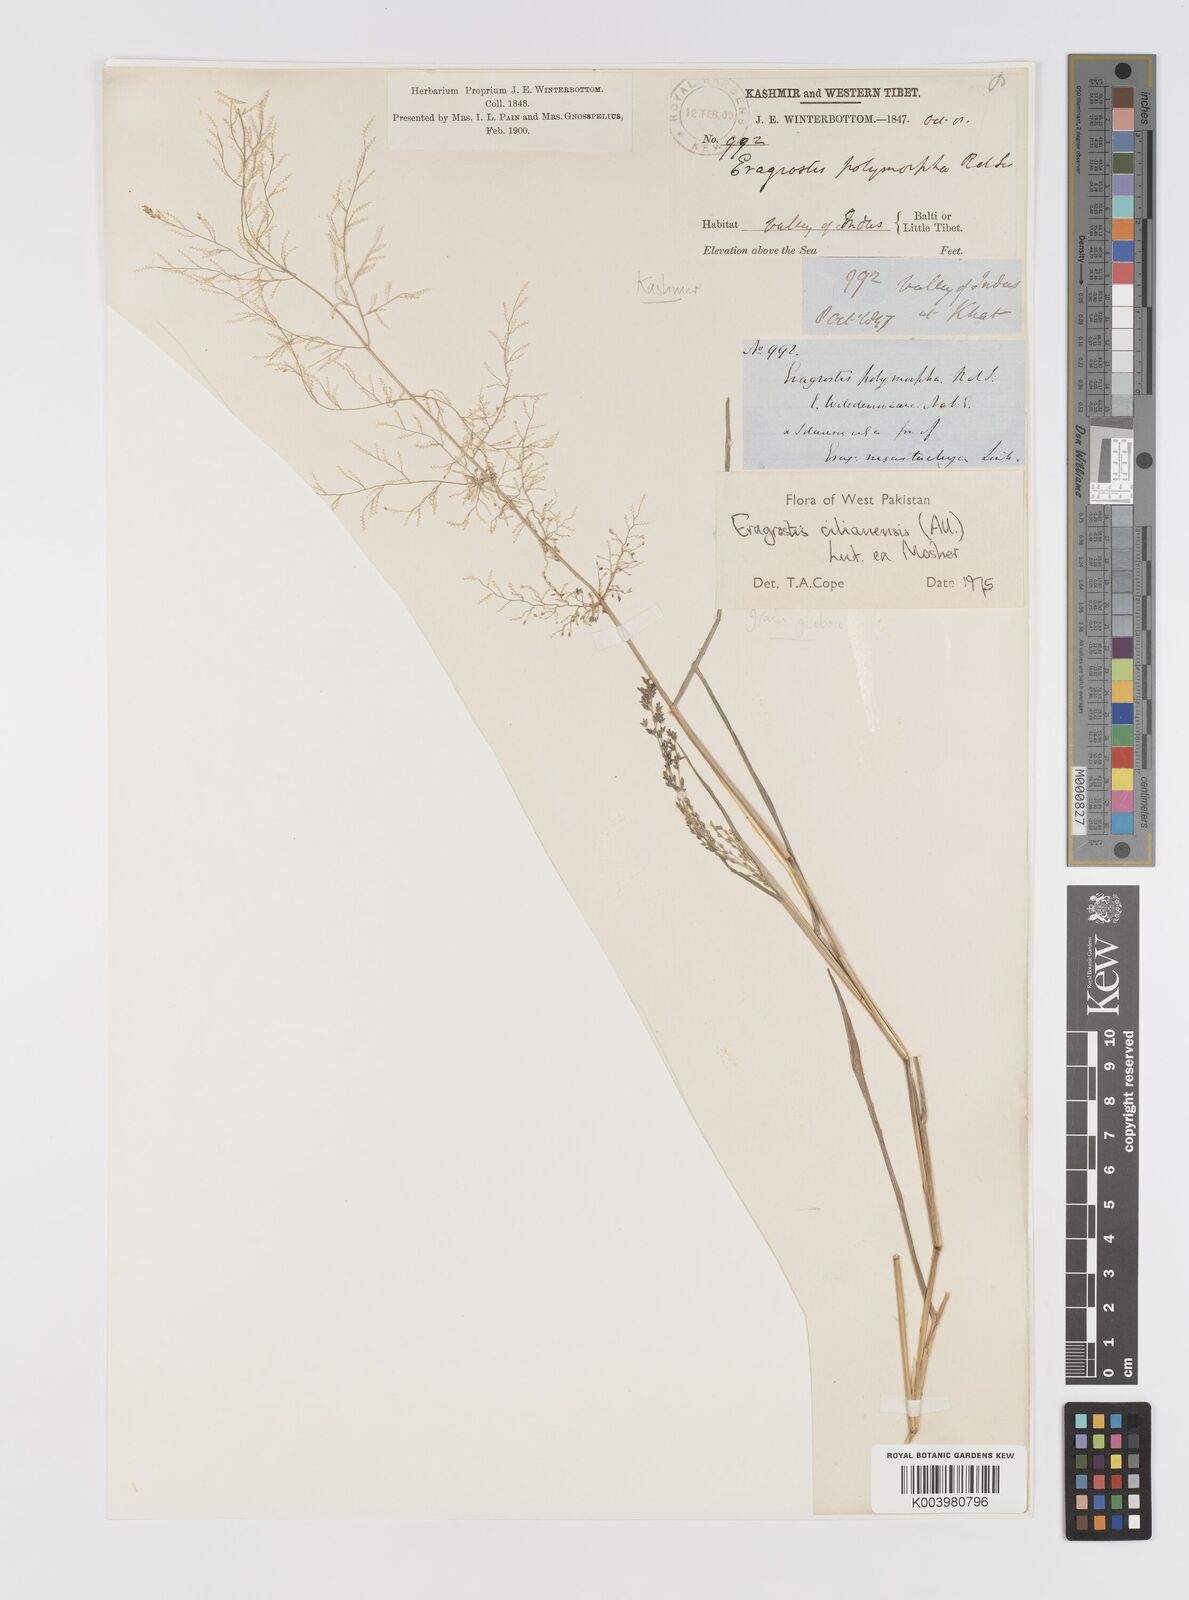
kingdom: Plantae
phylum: Tracheophyta
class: Liliopsida
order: Poales
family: Poaceae
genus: Eragrostis
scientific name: Eragrostis cilianensis
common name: Stinkgrass
